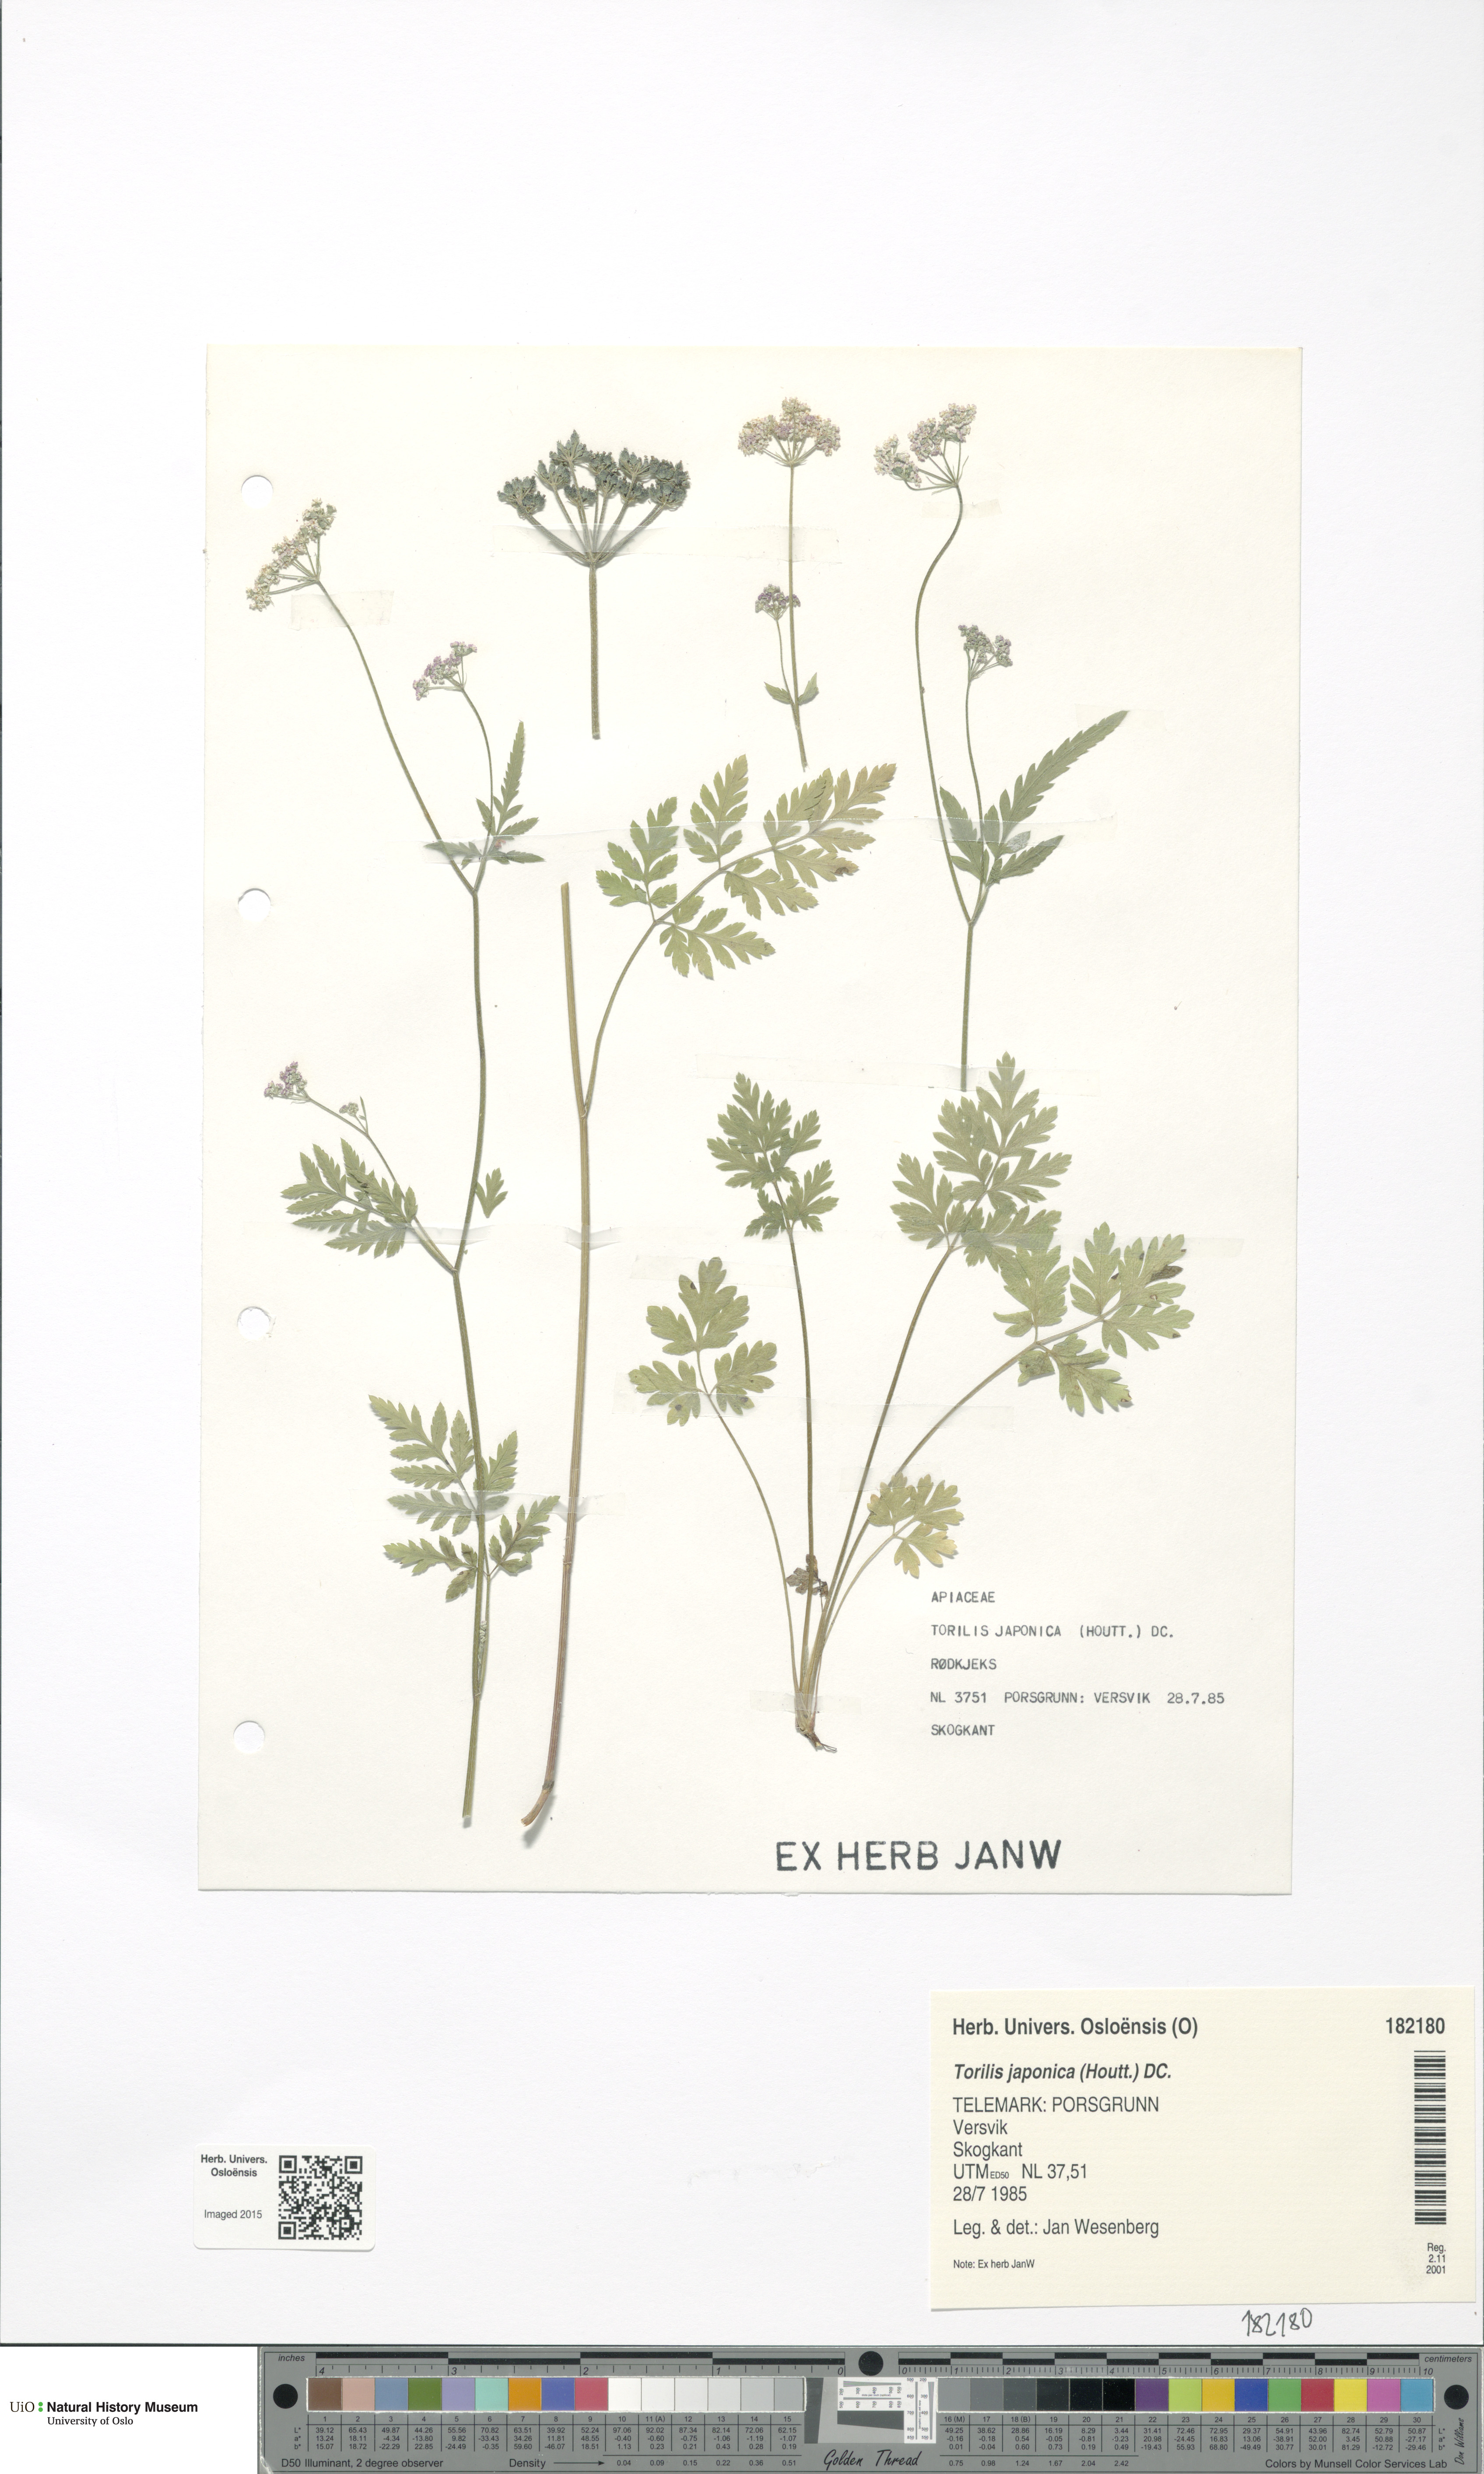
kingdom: Plantae
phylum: Tracheophyta
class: Magnoliopsida
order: Apiales
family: Apiaceae
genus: Torilis
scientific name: Torilis japonica
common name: Upright hedge-parsley
